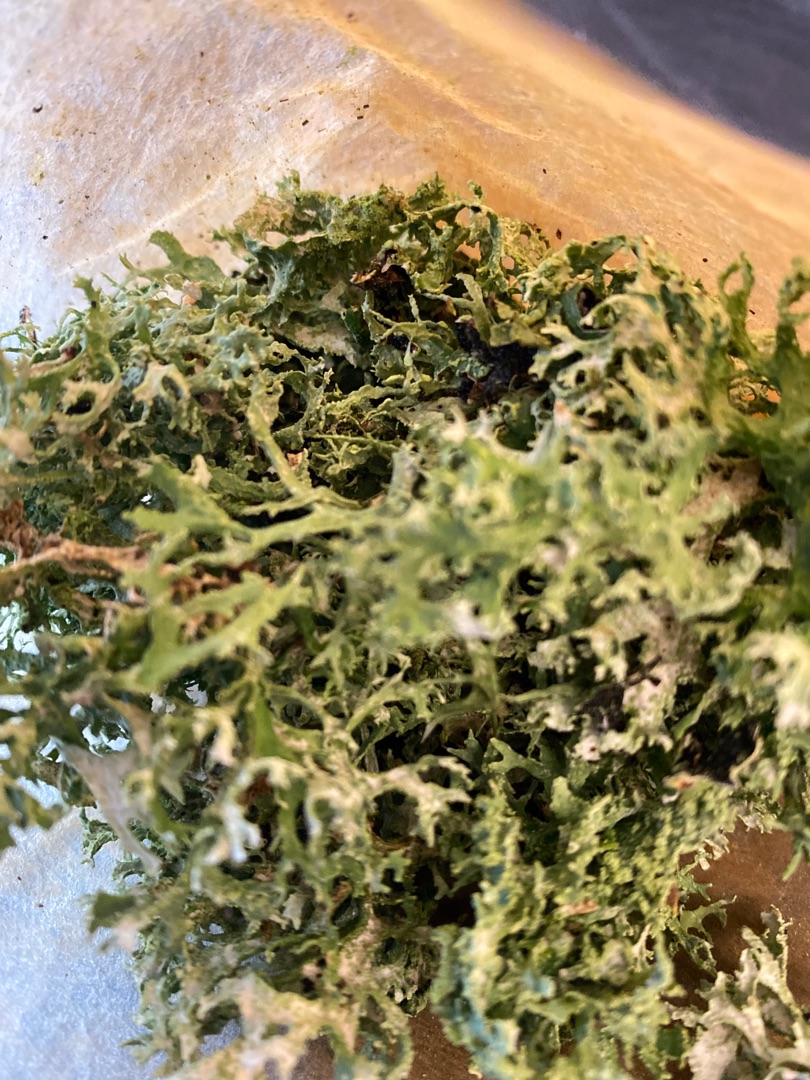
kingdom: Fungi
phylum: Ascomycota
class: Lecanoromycetes
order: Lecanorales
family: Parmeliaceae
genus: Evernia
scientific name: Evernia prunastri
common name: Almindelig slåenlav
